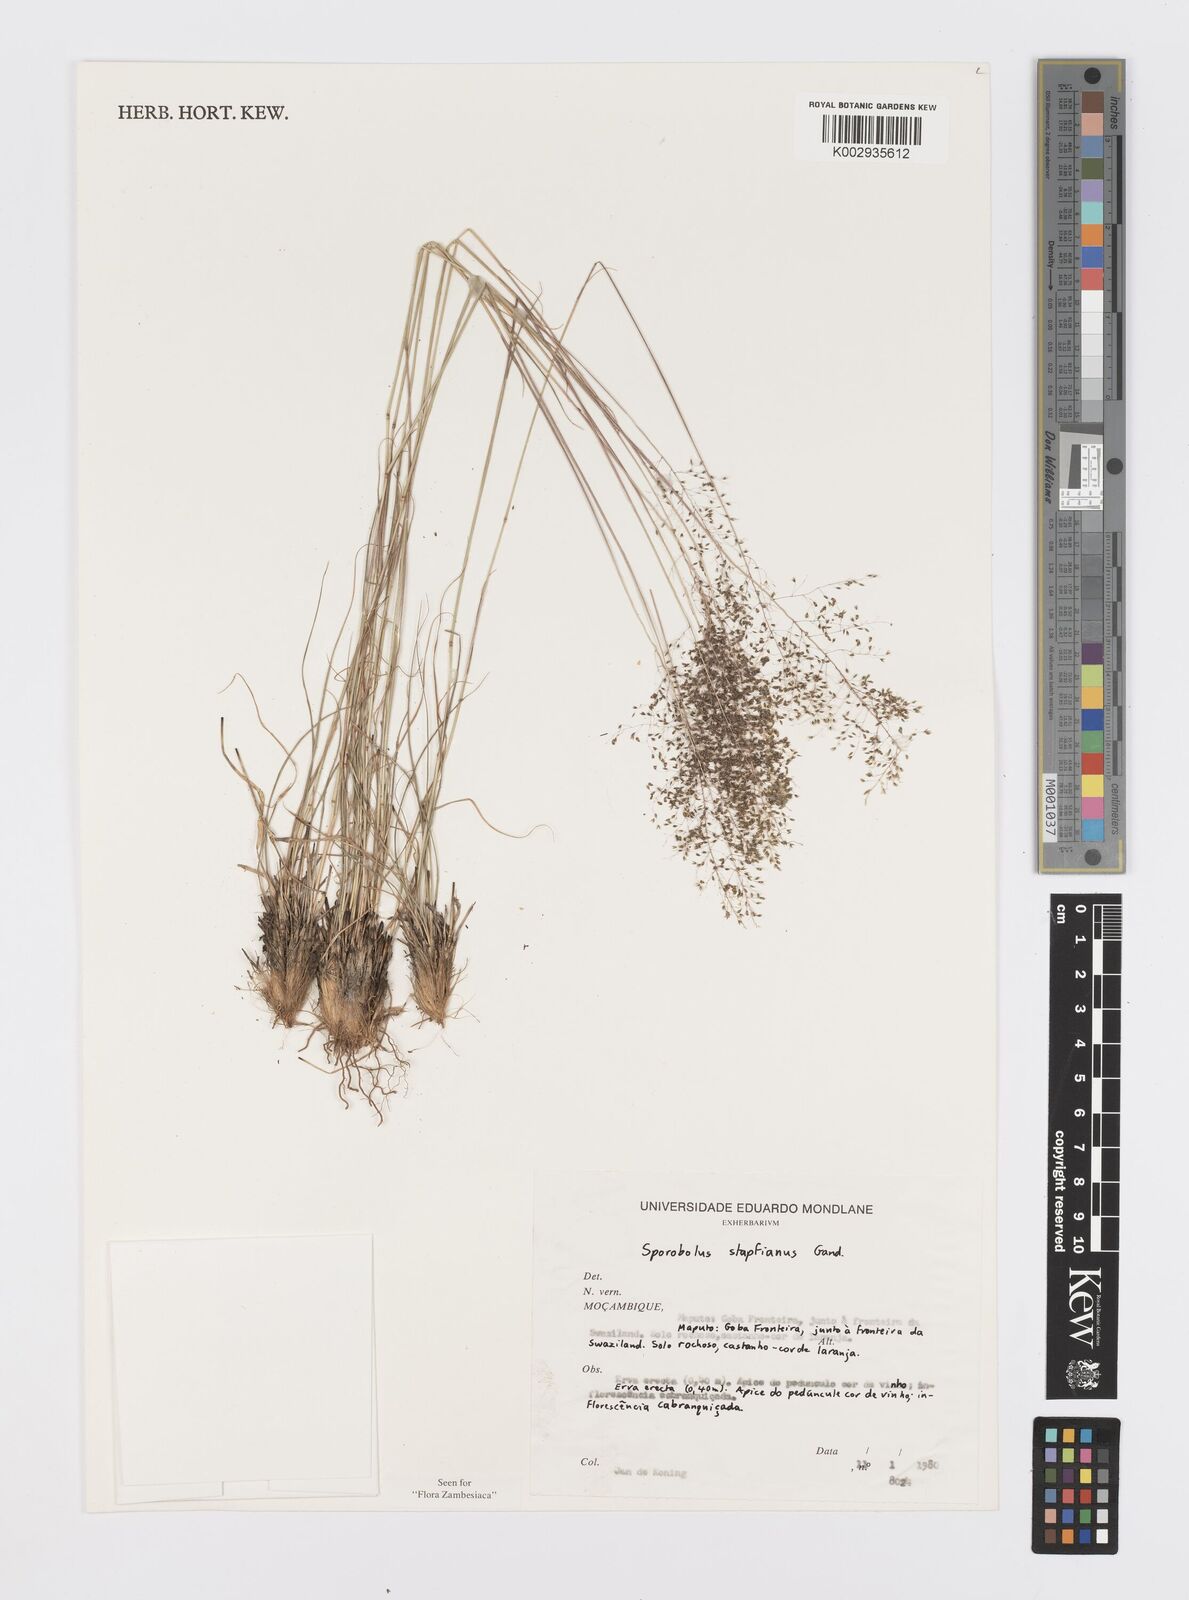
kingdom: Plantae
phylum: Tracheophyta
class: Liliopsida
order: Poales
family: Poaceae
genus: Sporobolus
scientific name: Sporobolus stapfianus
